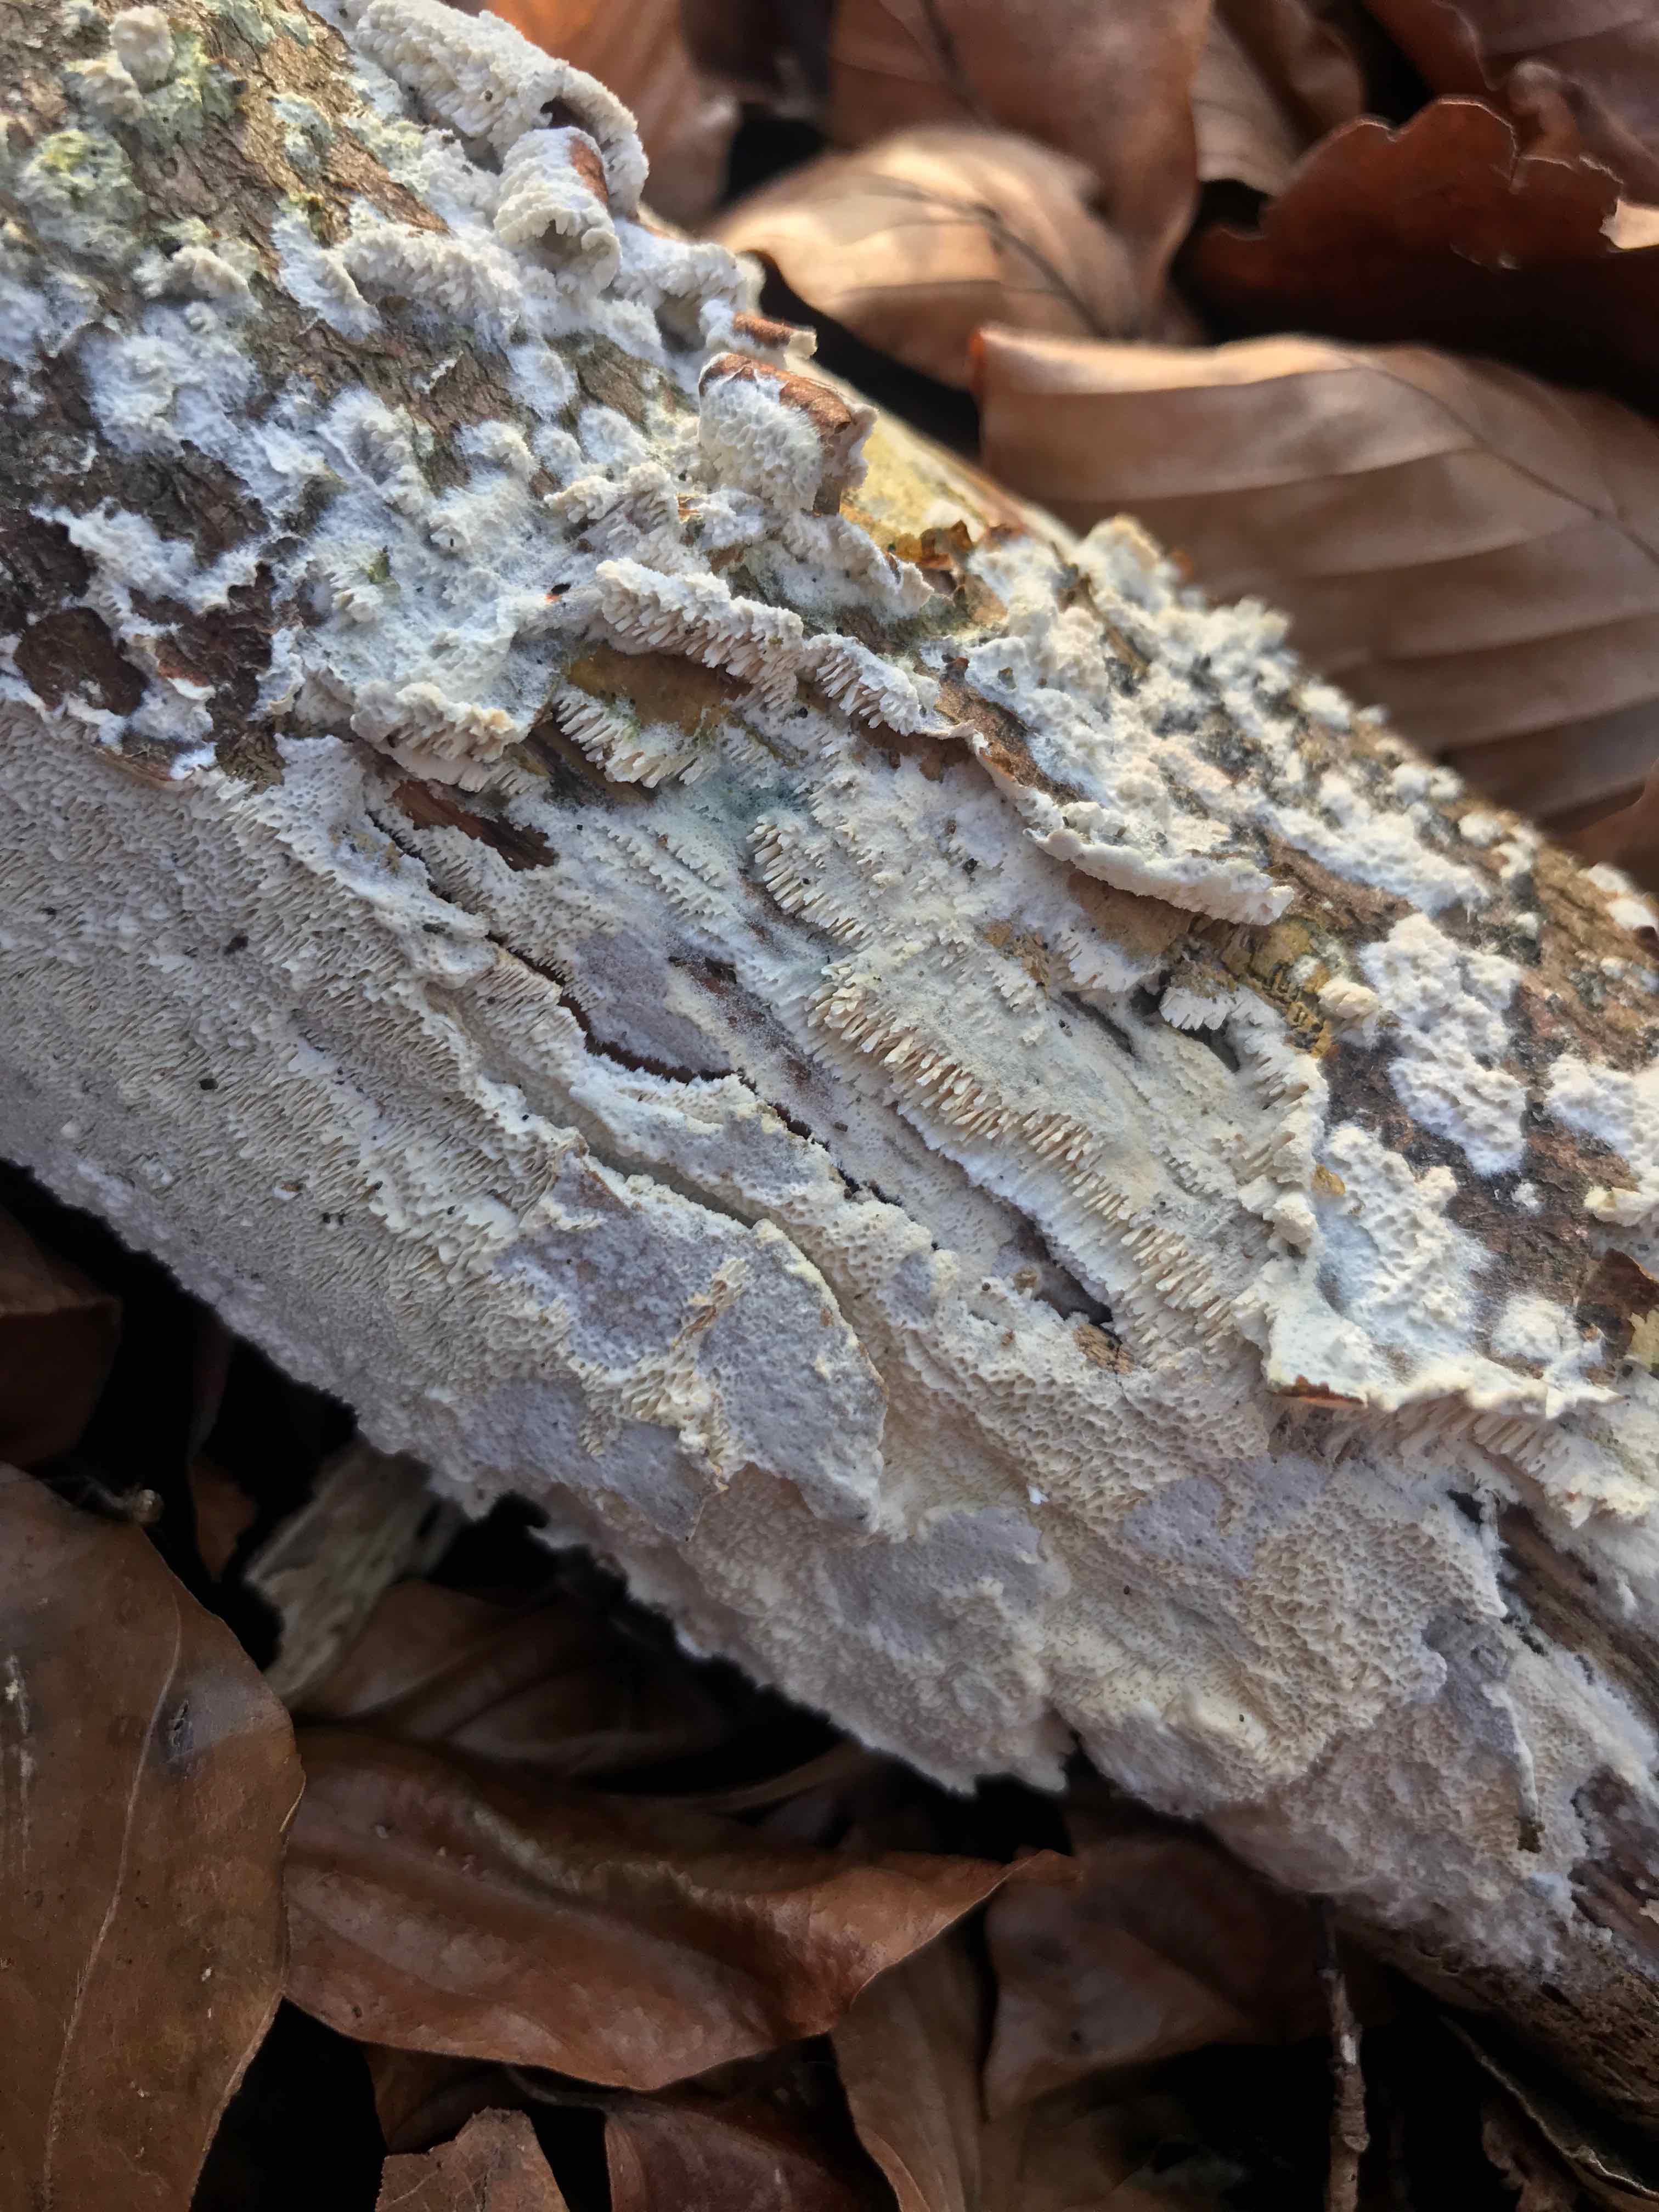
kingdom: Fungi
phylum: Basidiomycota
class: Agaricomycetes
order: Hymenochaetales
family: Schizoporaceae
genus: Schizopora
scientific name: Schizopora paradoxa
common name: hvid tandsvamp
